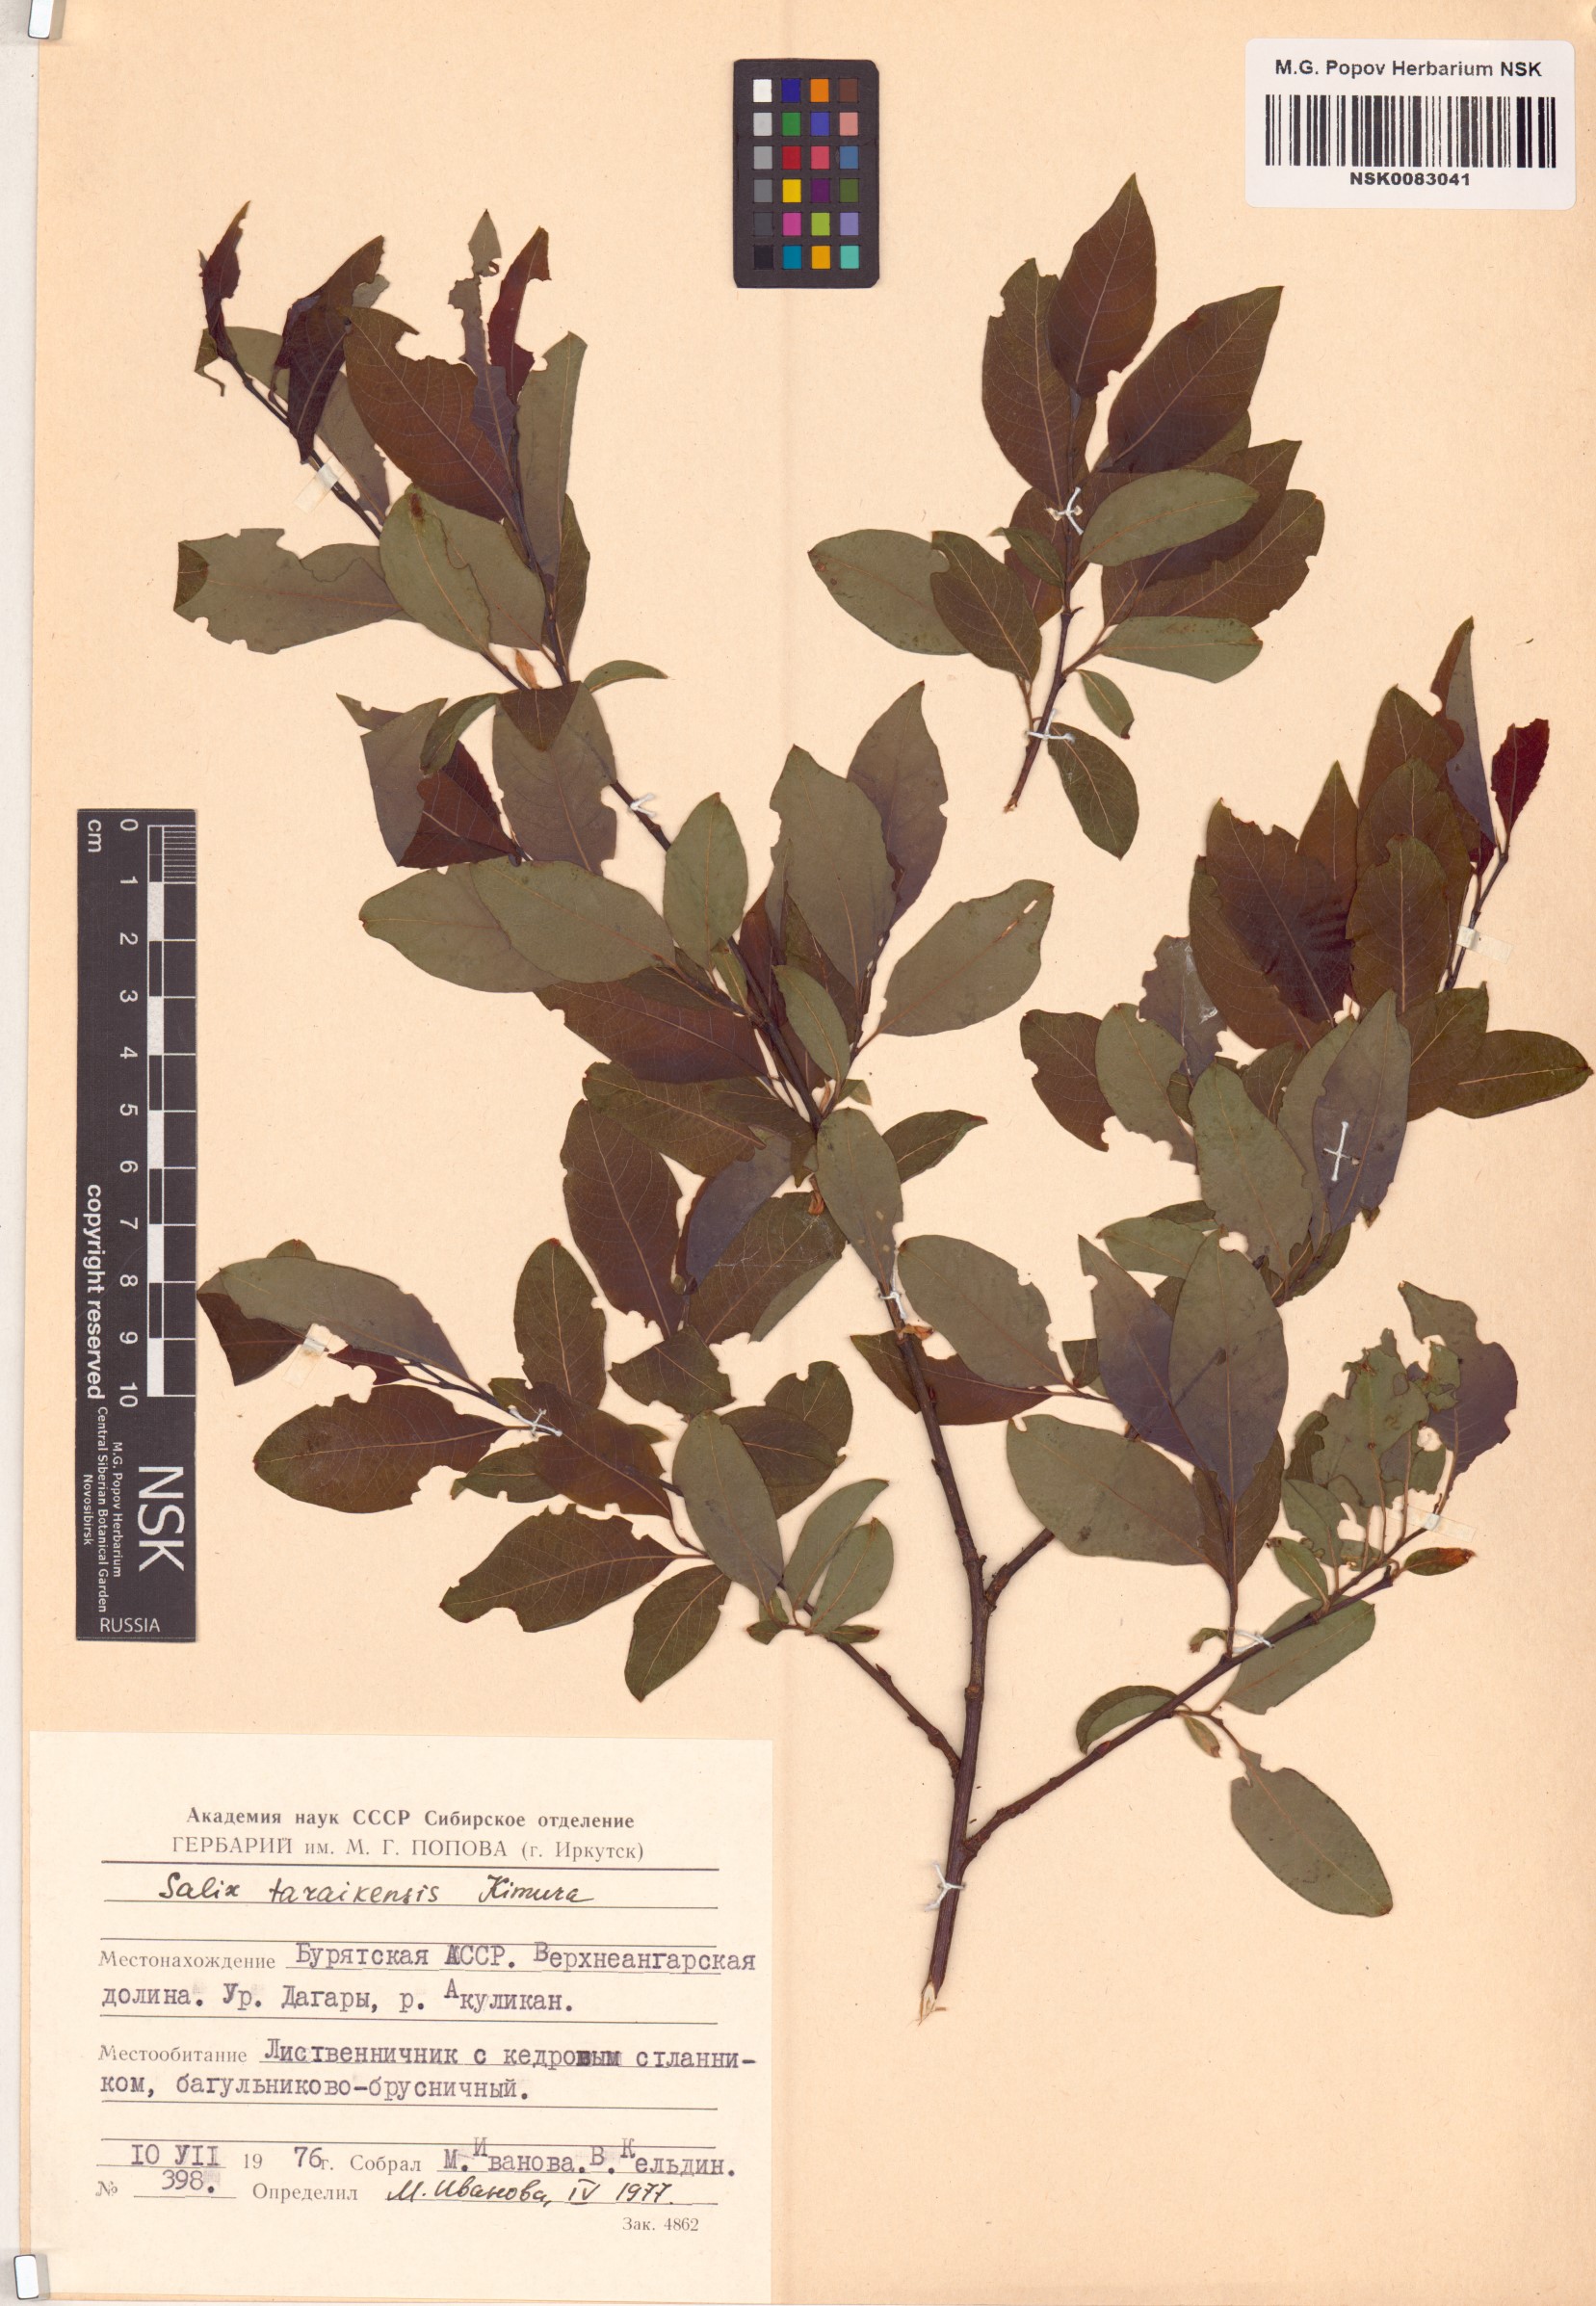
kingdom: Plantae
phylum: Tracheophyta
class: Magnoliopsida
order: Malpighiales
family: Salicaceae
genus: Salix
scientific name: Salix taraikensis
